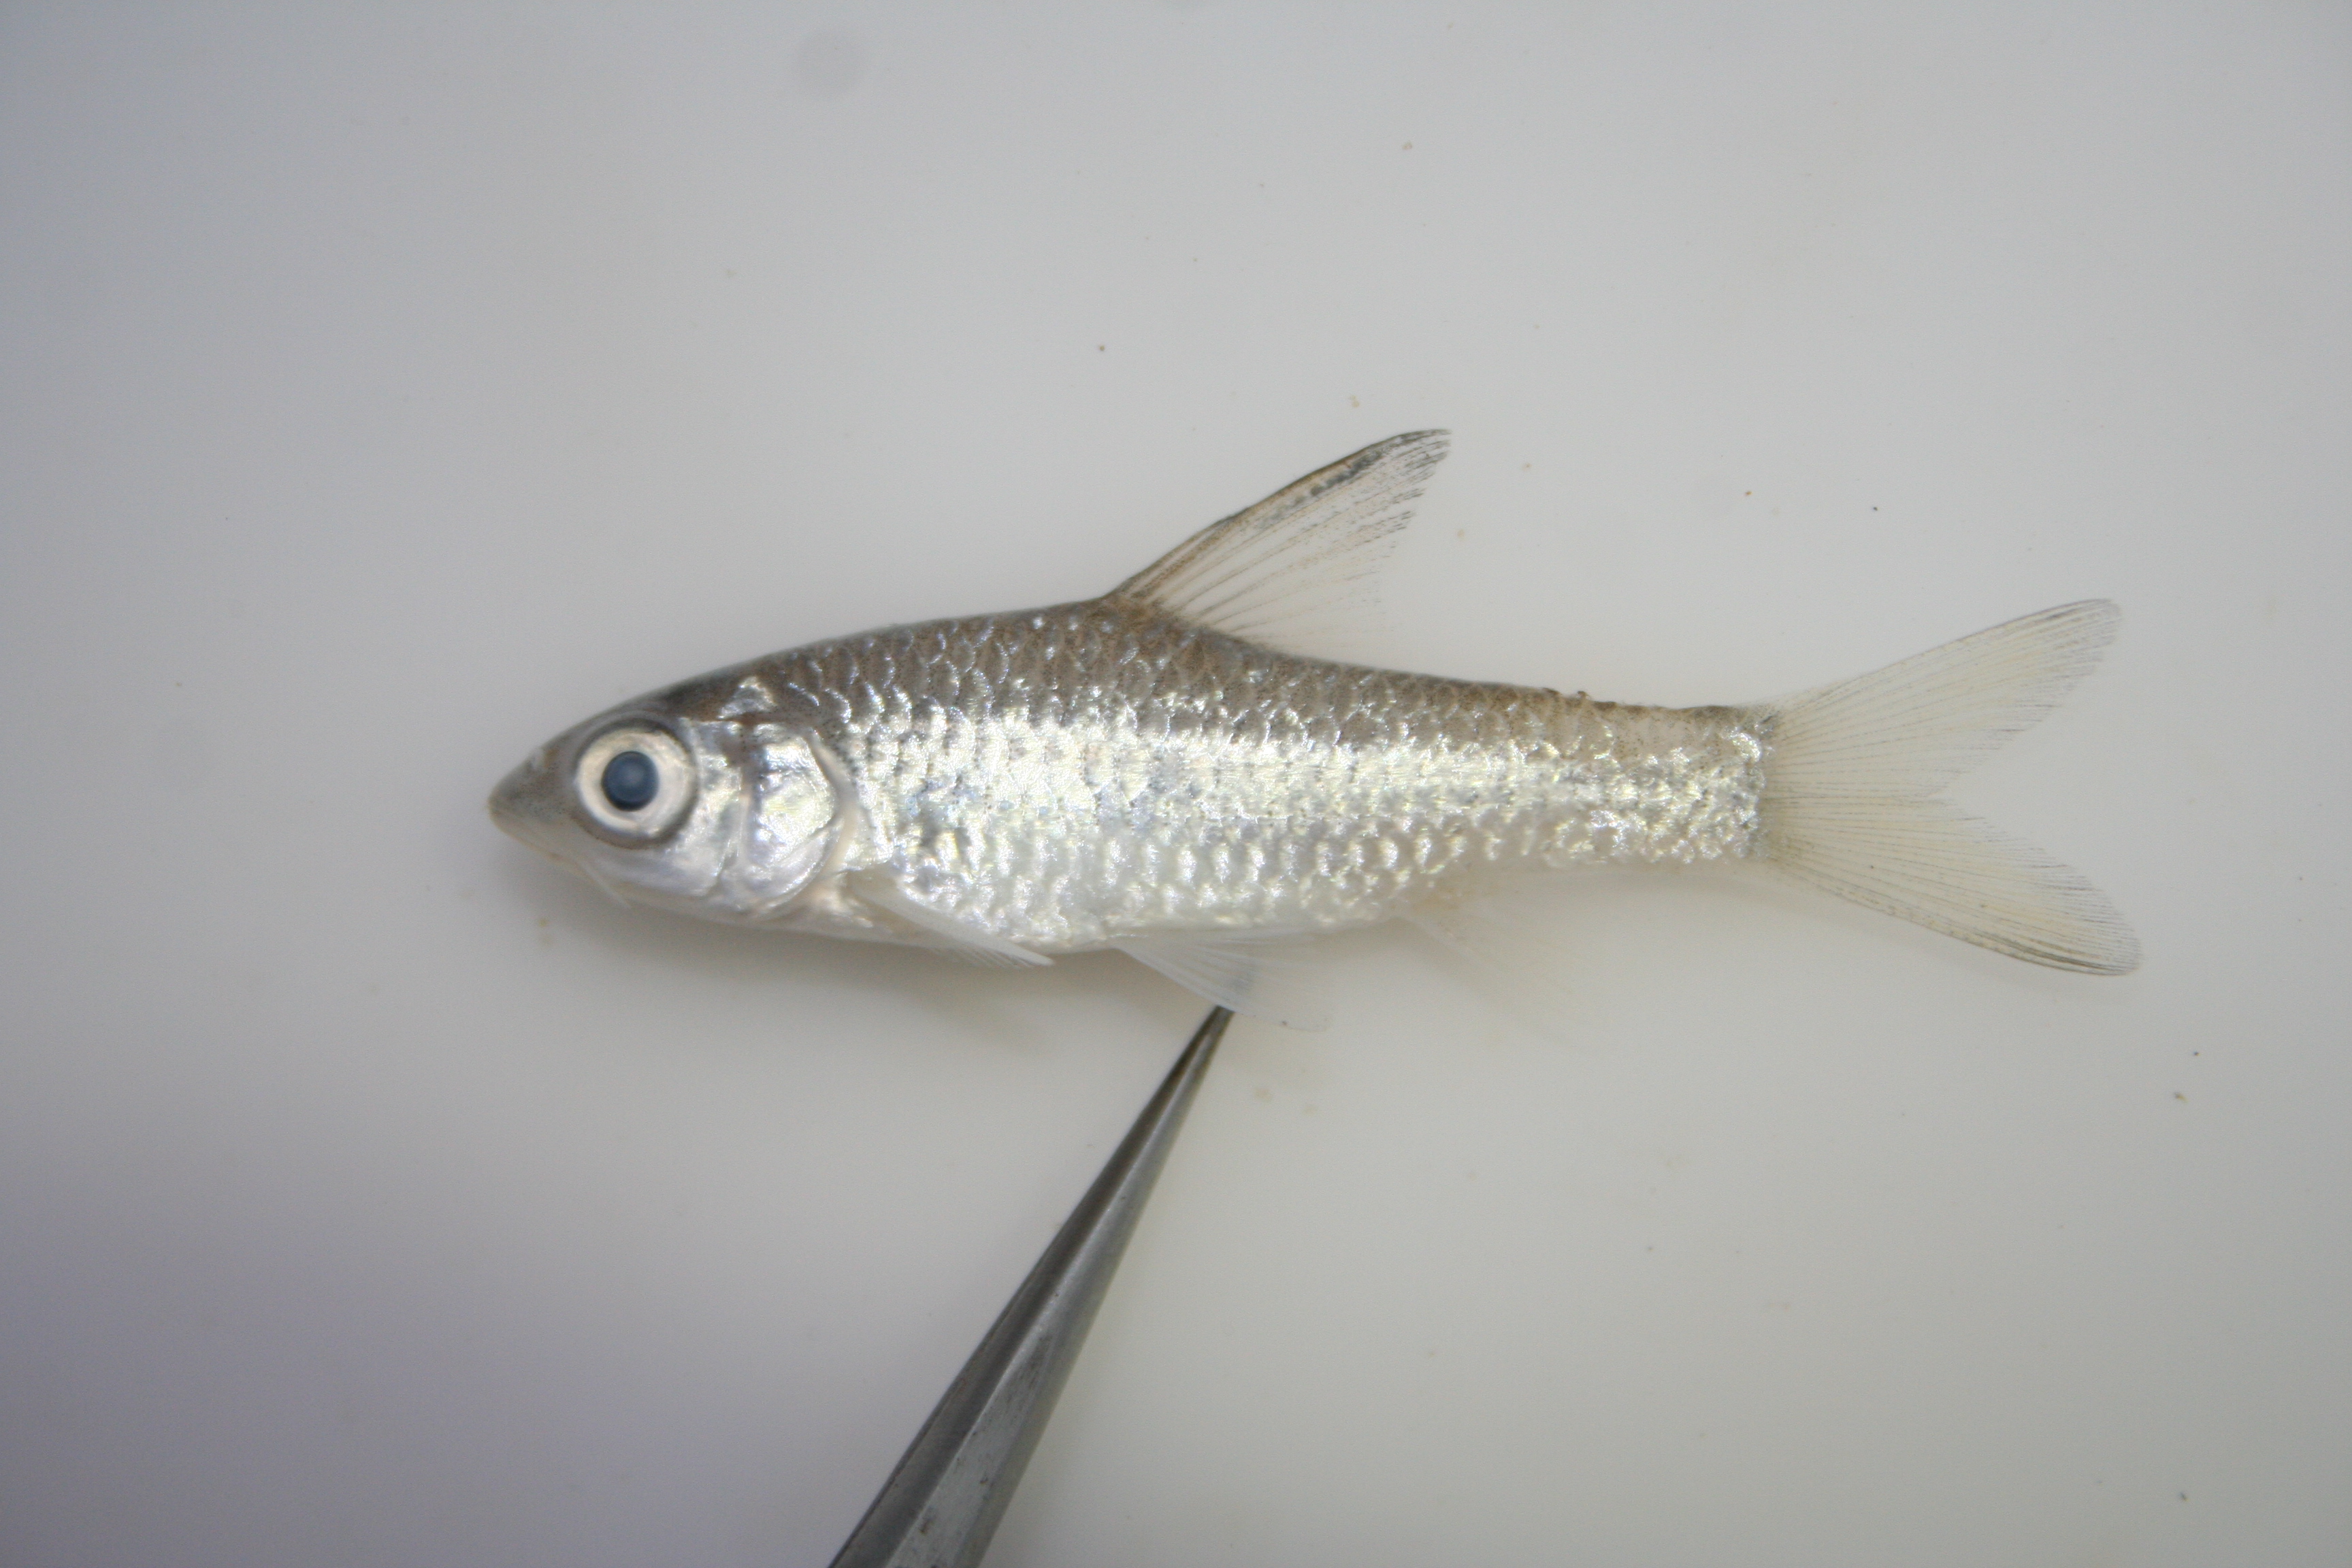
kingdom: Animalia
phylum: Chordata
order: Cypriniformes
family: Cyprinidae
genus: Barbus
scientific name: Barbus
